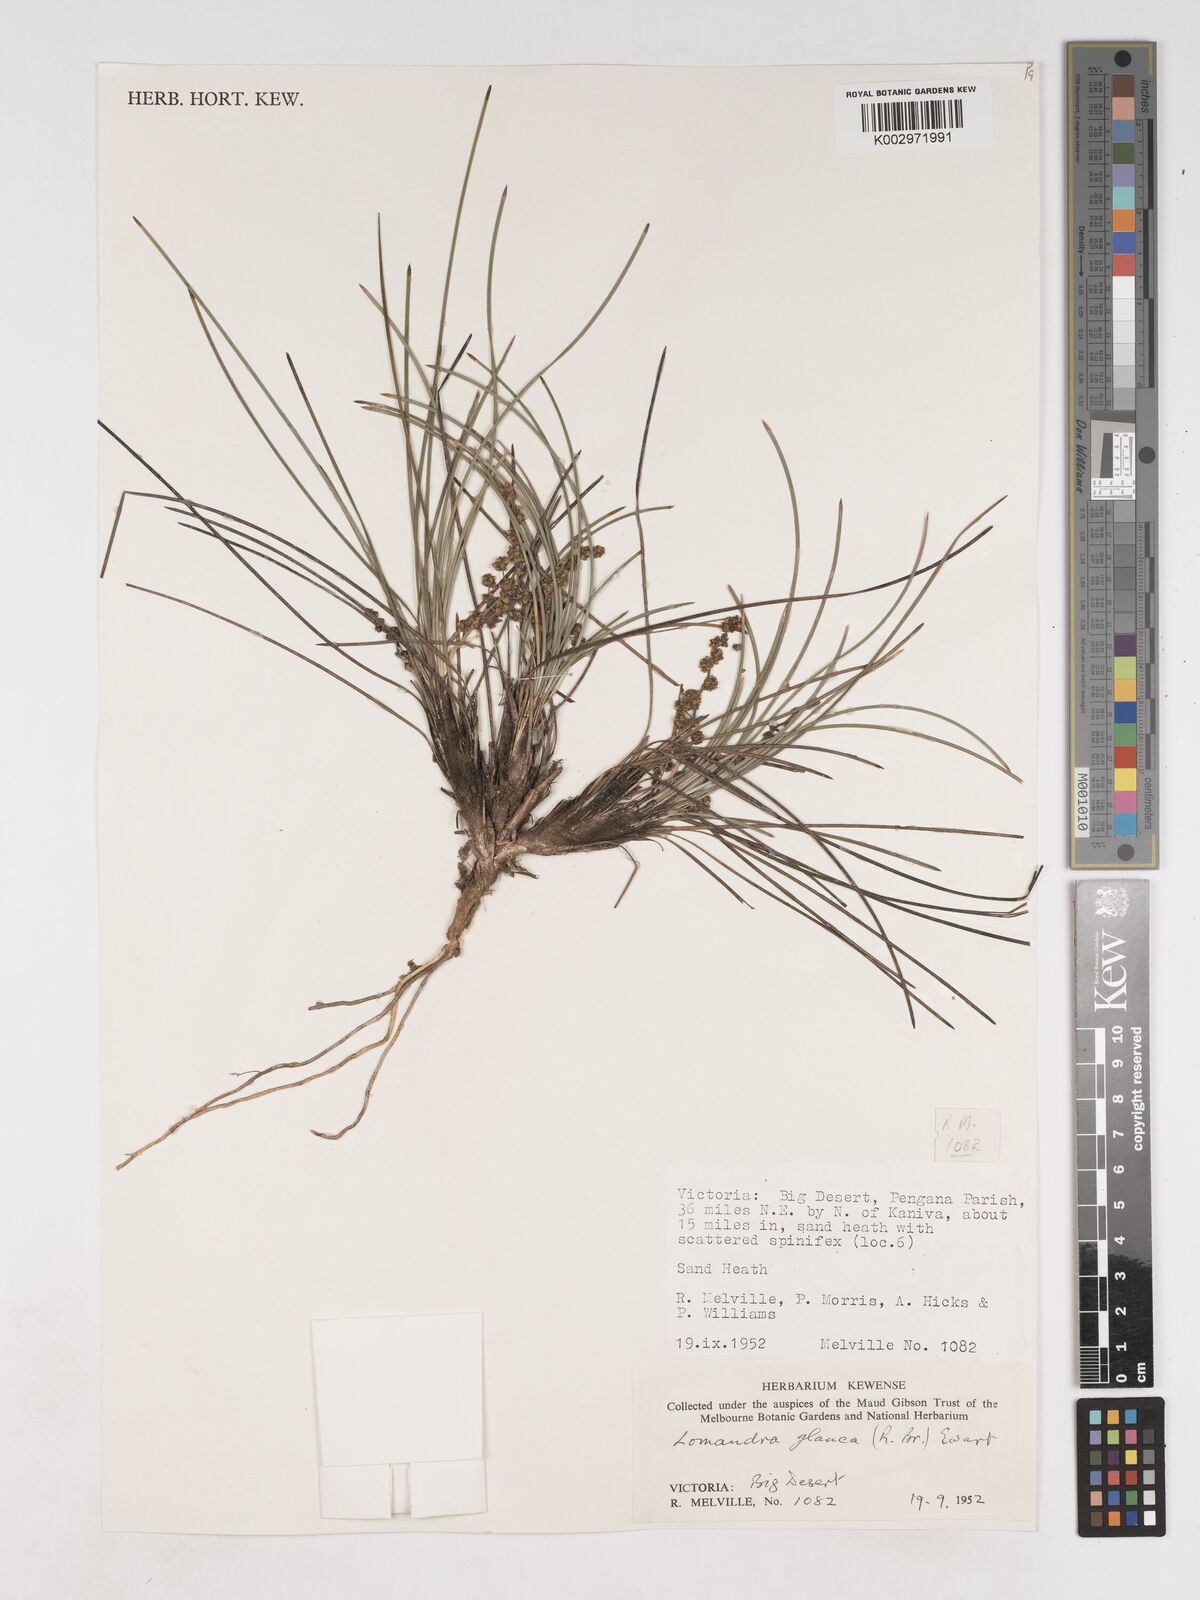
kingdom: Plantae
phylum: Tracheophyta
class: Liliopsida
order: Asparagales
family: Asparagaceae
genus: Lomandra
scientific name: Lomandra glauca
